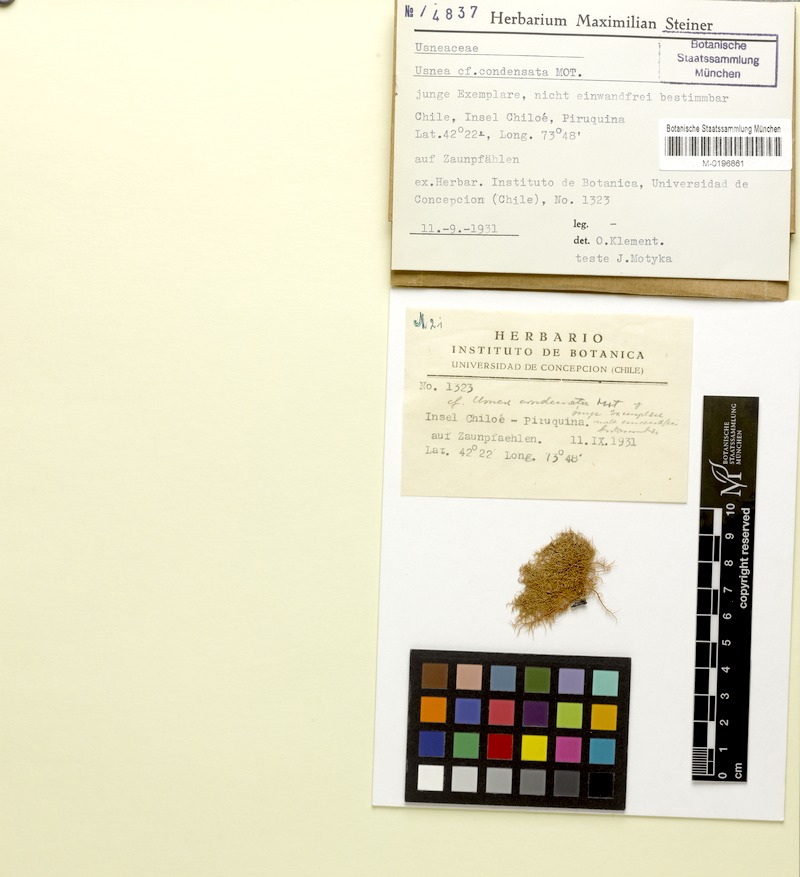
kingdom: Fungi
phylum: Ascomycota
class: Lecanoromycetes
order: Lecanorales
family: Parmeliaceae
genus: Usnea
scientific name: Usnea condensata
